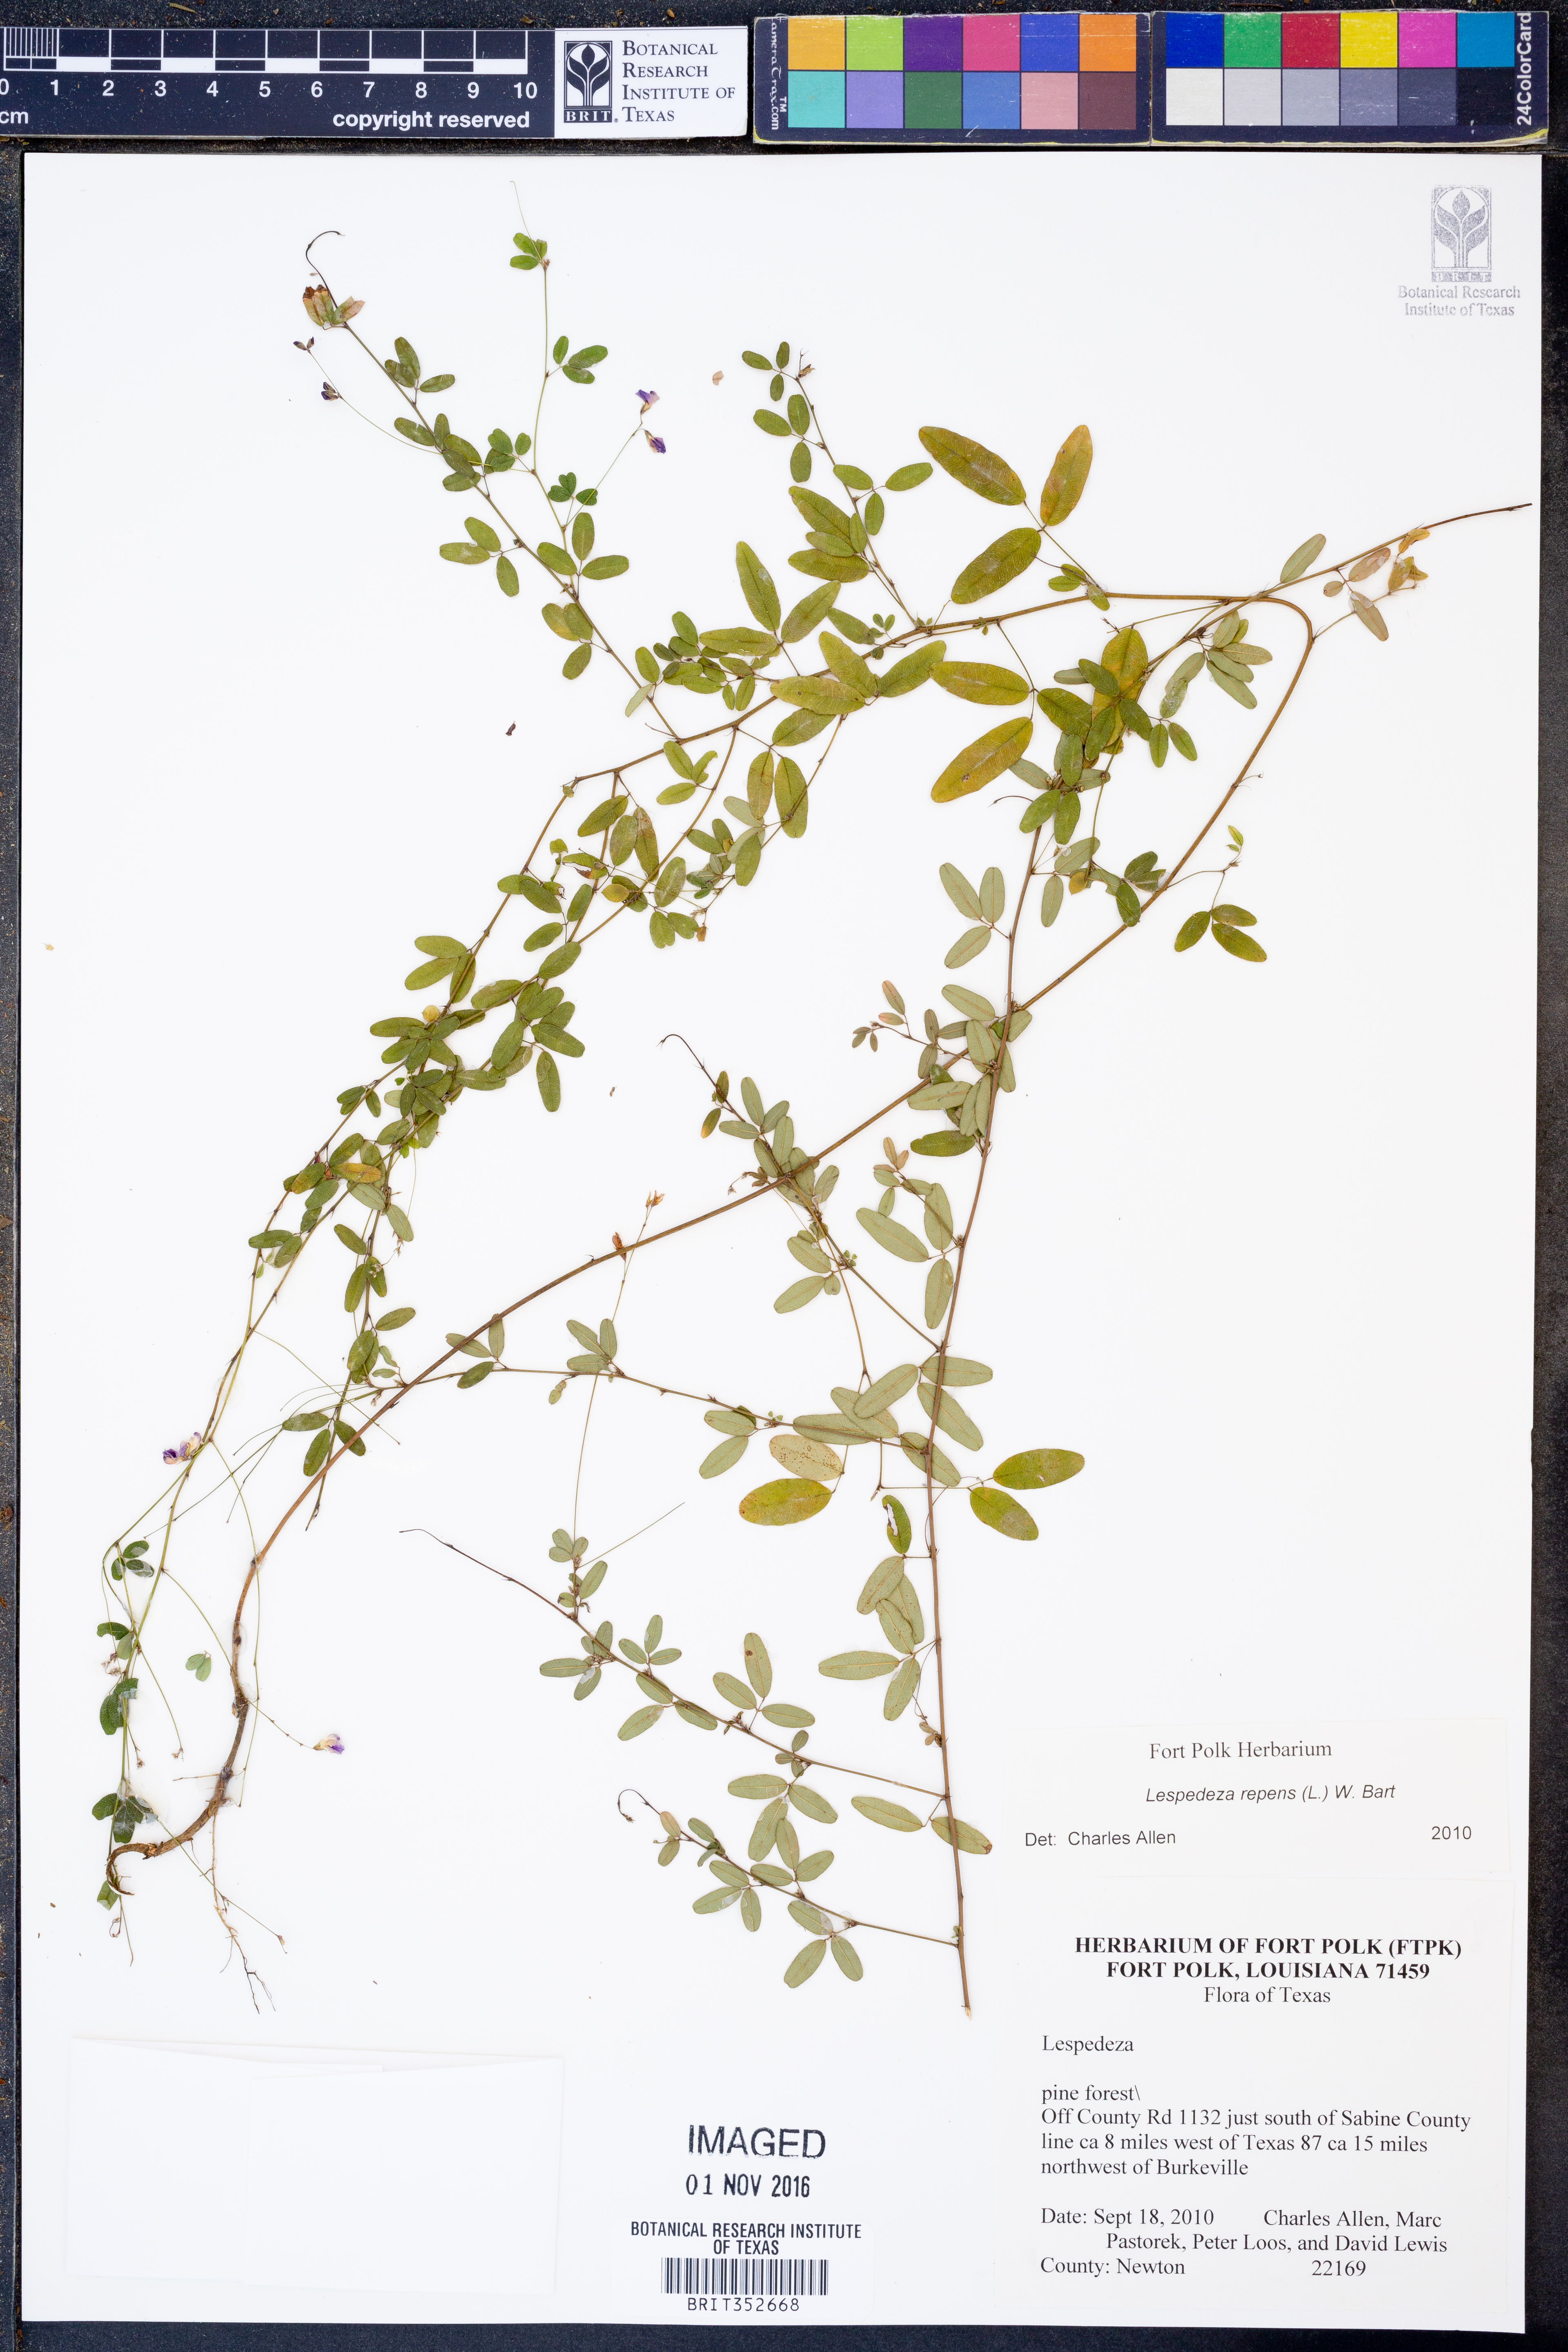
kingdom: Plantae
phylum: Tracheophyta
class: Magnoliopsida
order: Fabales
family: Fabaceae
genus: Lespedeza
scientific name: Lespedeza repens
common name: Creeping bush-clover
